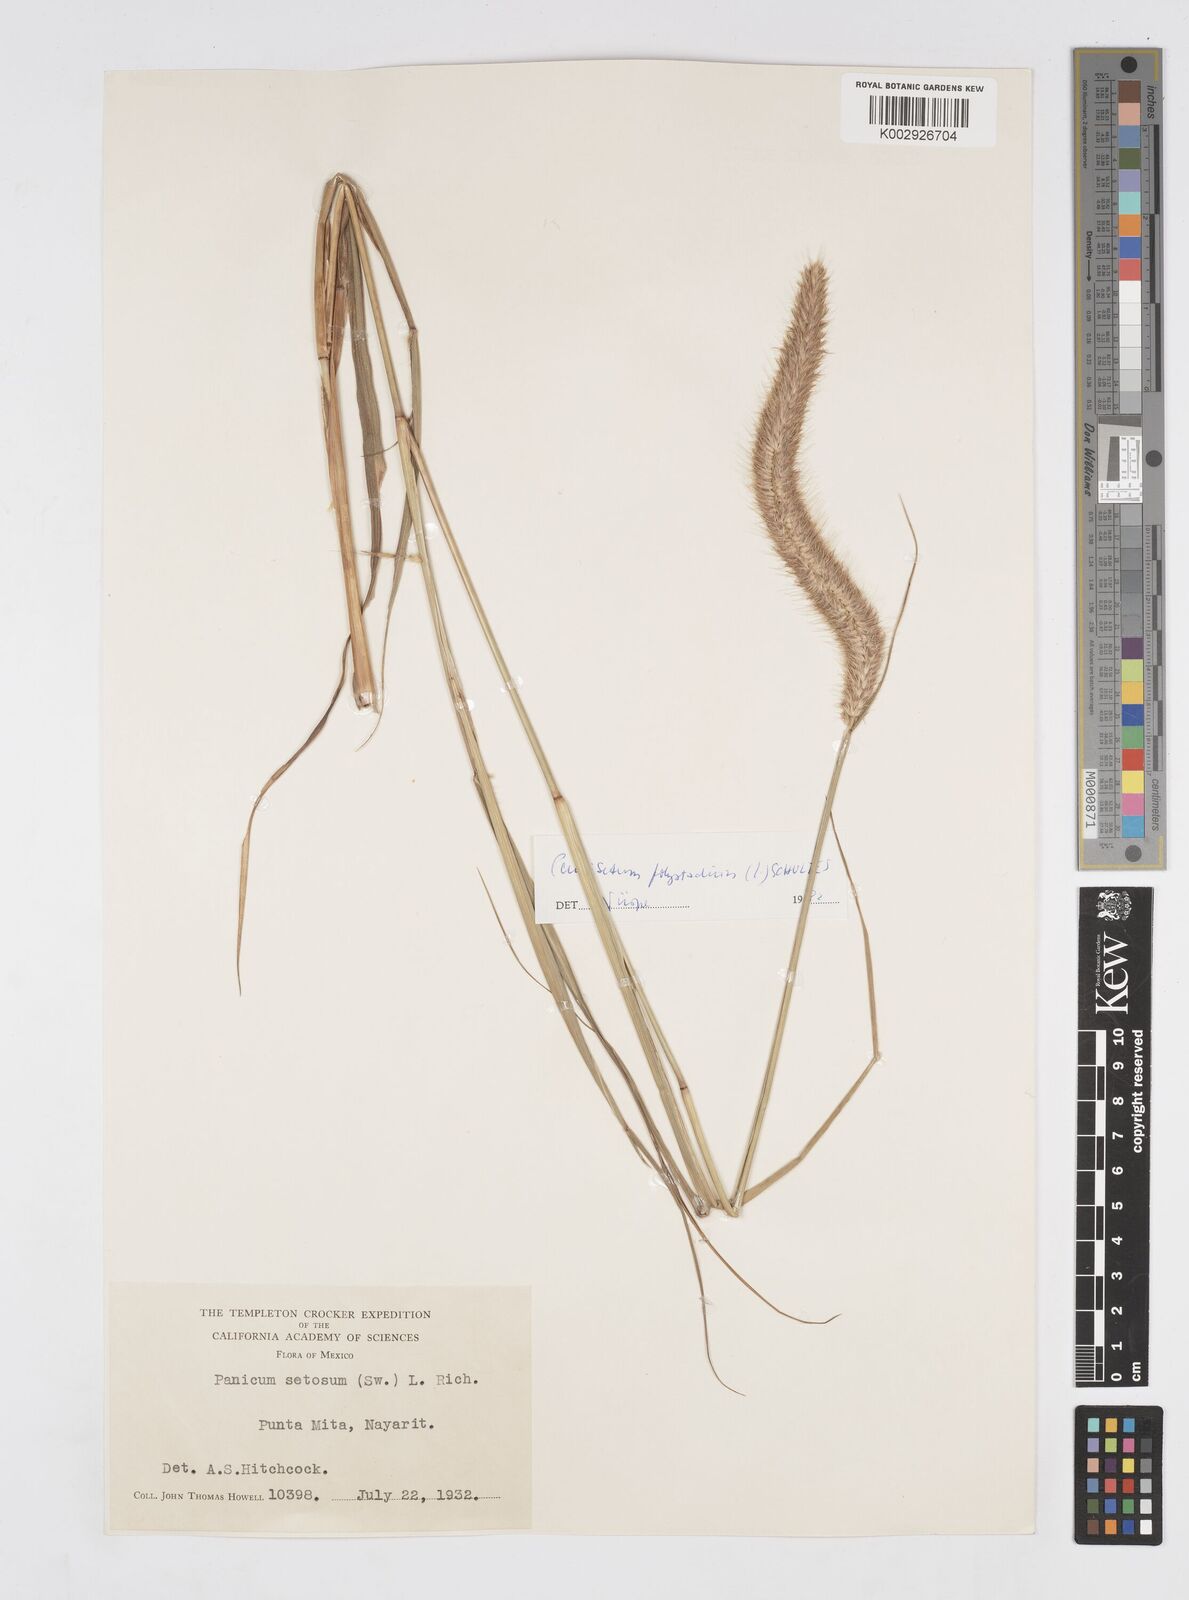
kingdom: Plantae
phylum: Tracheophyta
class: Liliopsida
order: Poales
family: Poaceae
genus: Cenchrus
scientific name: Cenchrus setosus
